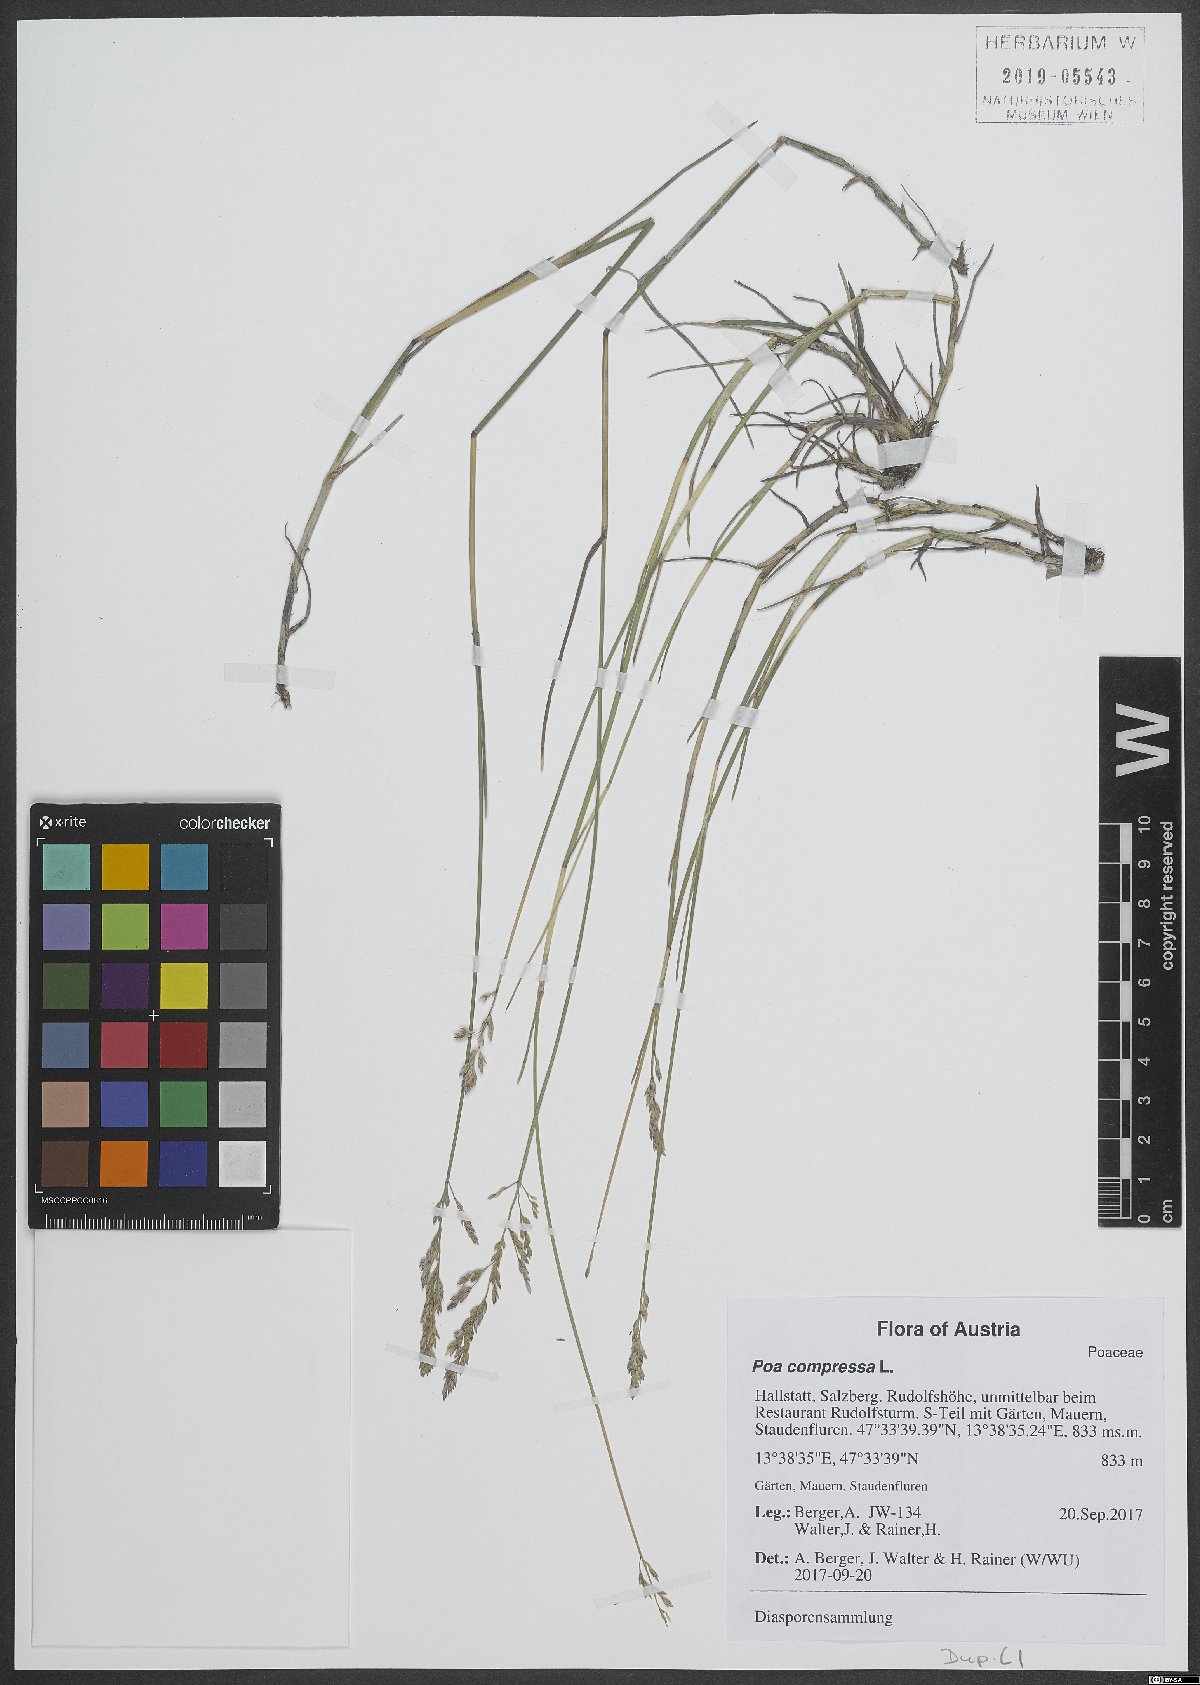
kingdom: Plantae
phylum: Tracheophyta
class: Liliopsida
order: Poales
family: Poaceae
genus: Poa
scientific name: Poa compressa
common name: Canada bluegrass
